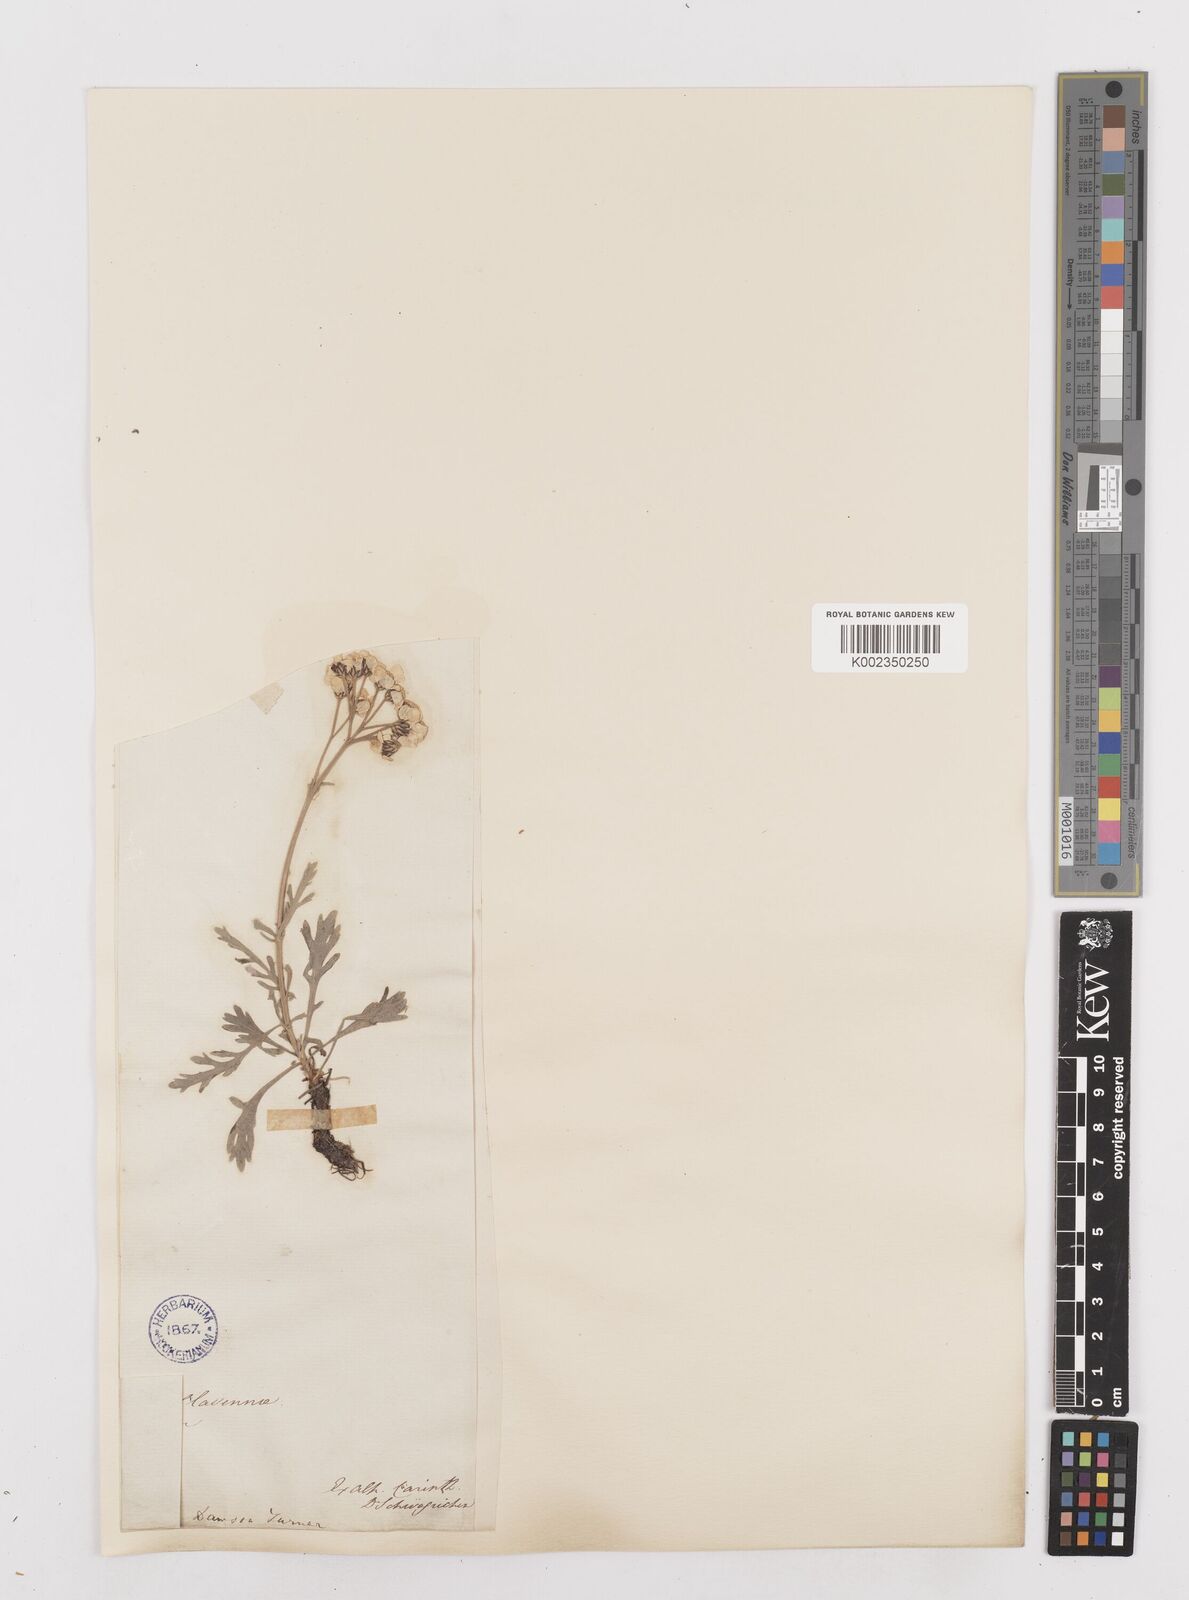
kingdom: Plantae
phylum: Tracheophyta
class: Magnoliopsida
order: Asterales
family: Asteraceae
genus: Achillea
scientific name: Achillea clavennae
